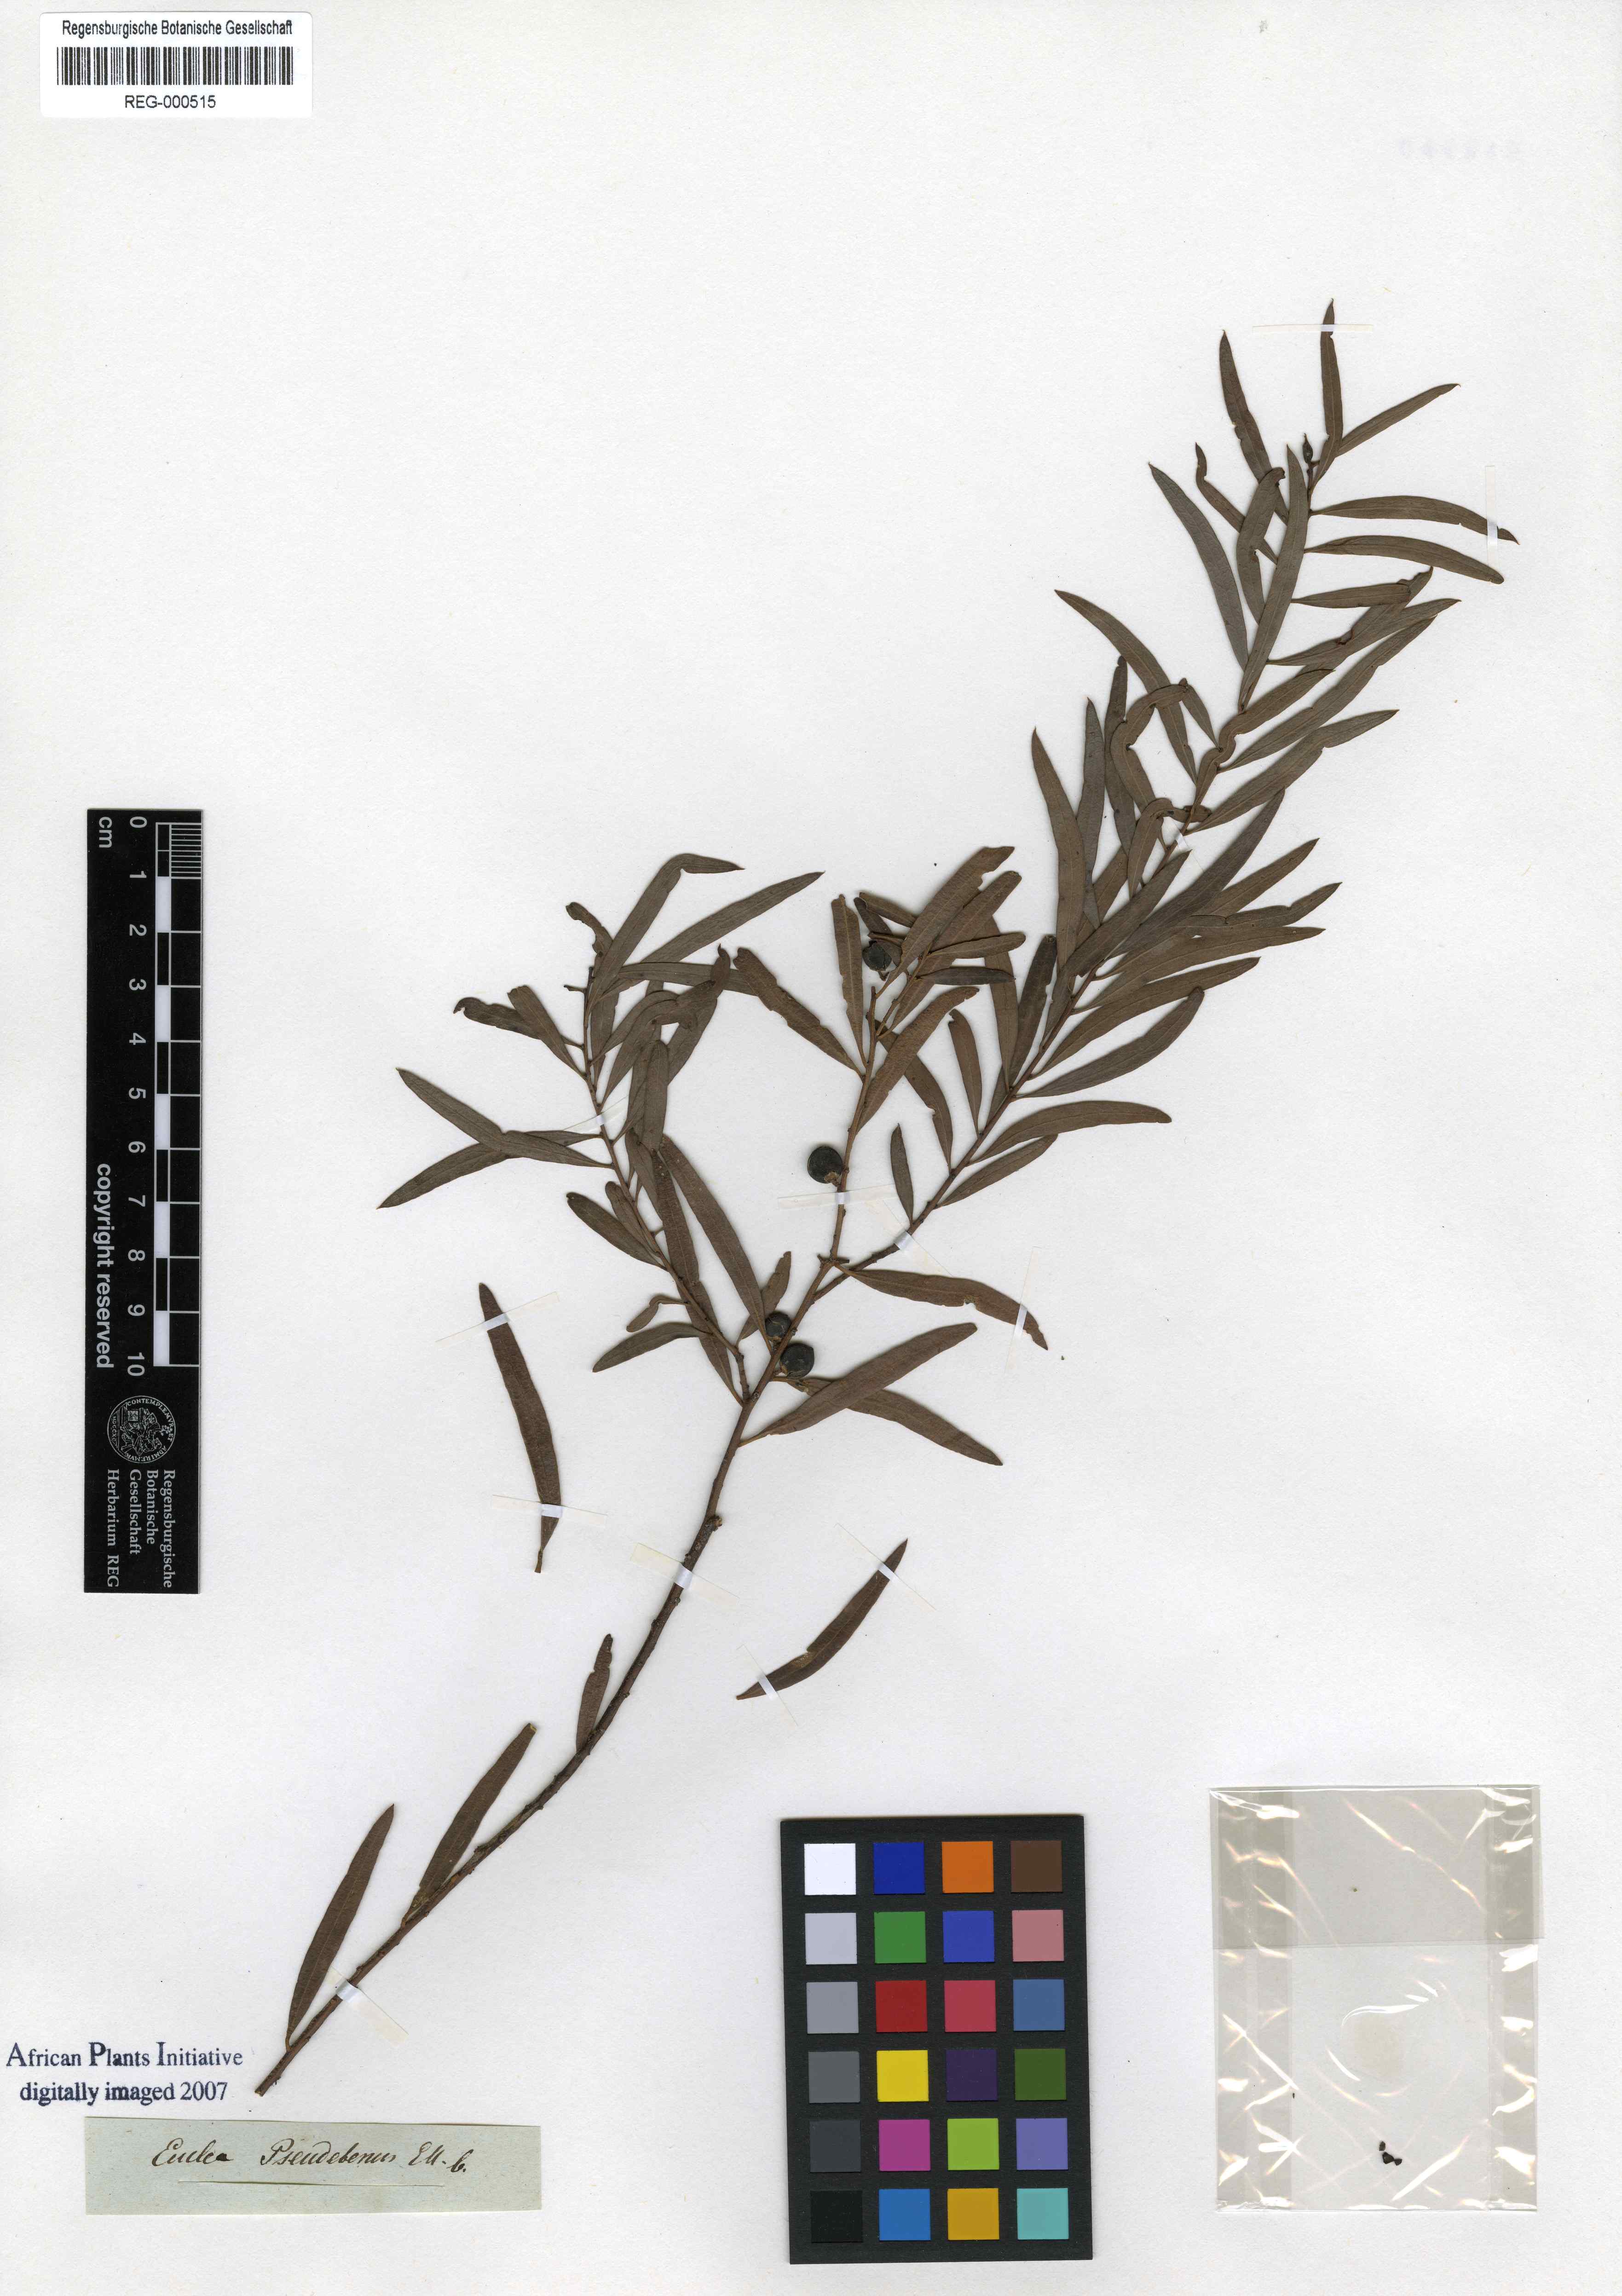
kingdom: Plantae
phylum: Tracheophyta
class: Magnoliopsida
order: Ericales
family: Ebenaceae
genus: Euclea
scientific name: Euclea pseudebenus
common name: Black ebony
